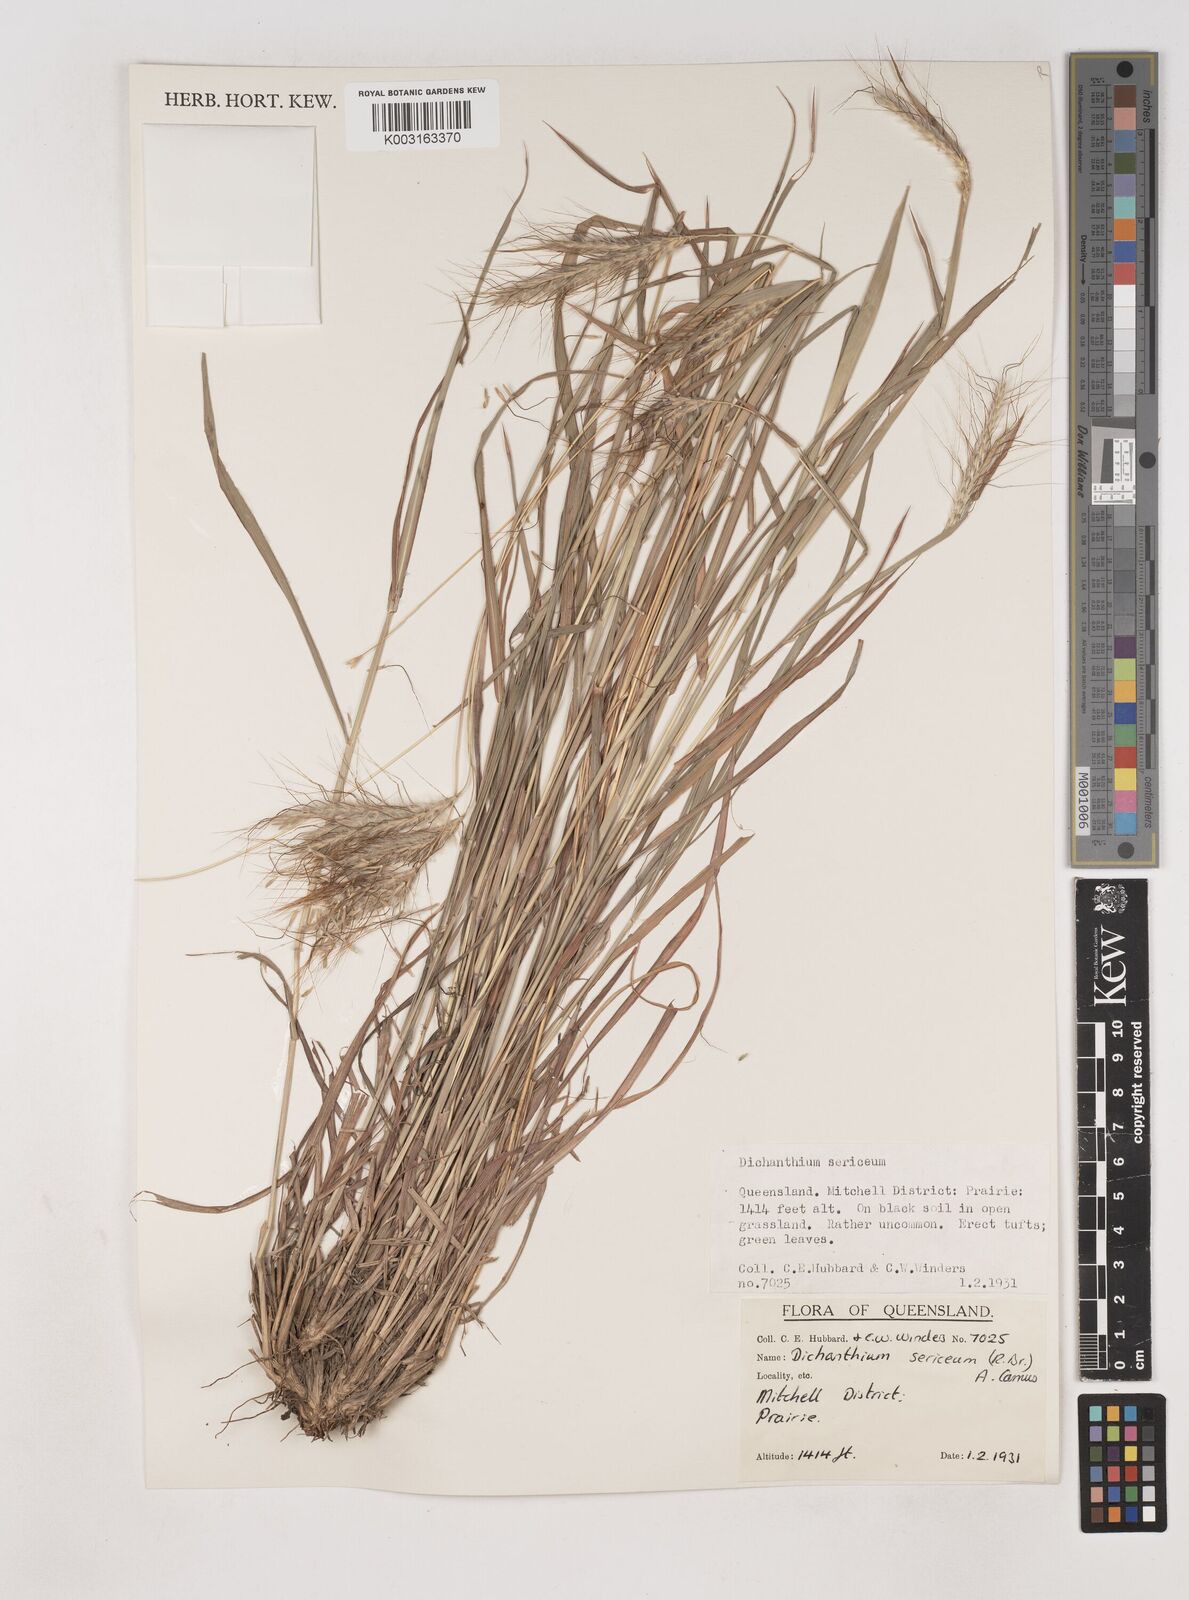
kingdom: Plantae
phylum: Tracheophyta
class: Liliopsida
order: Poales
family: Poaceae
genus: Dichanthium
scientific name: Dichanthium sericeum
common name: Silky bluestem
